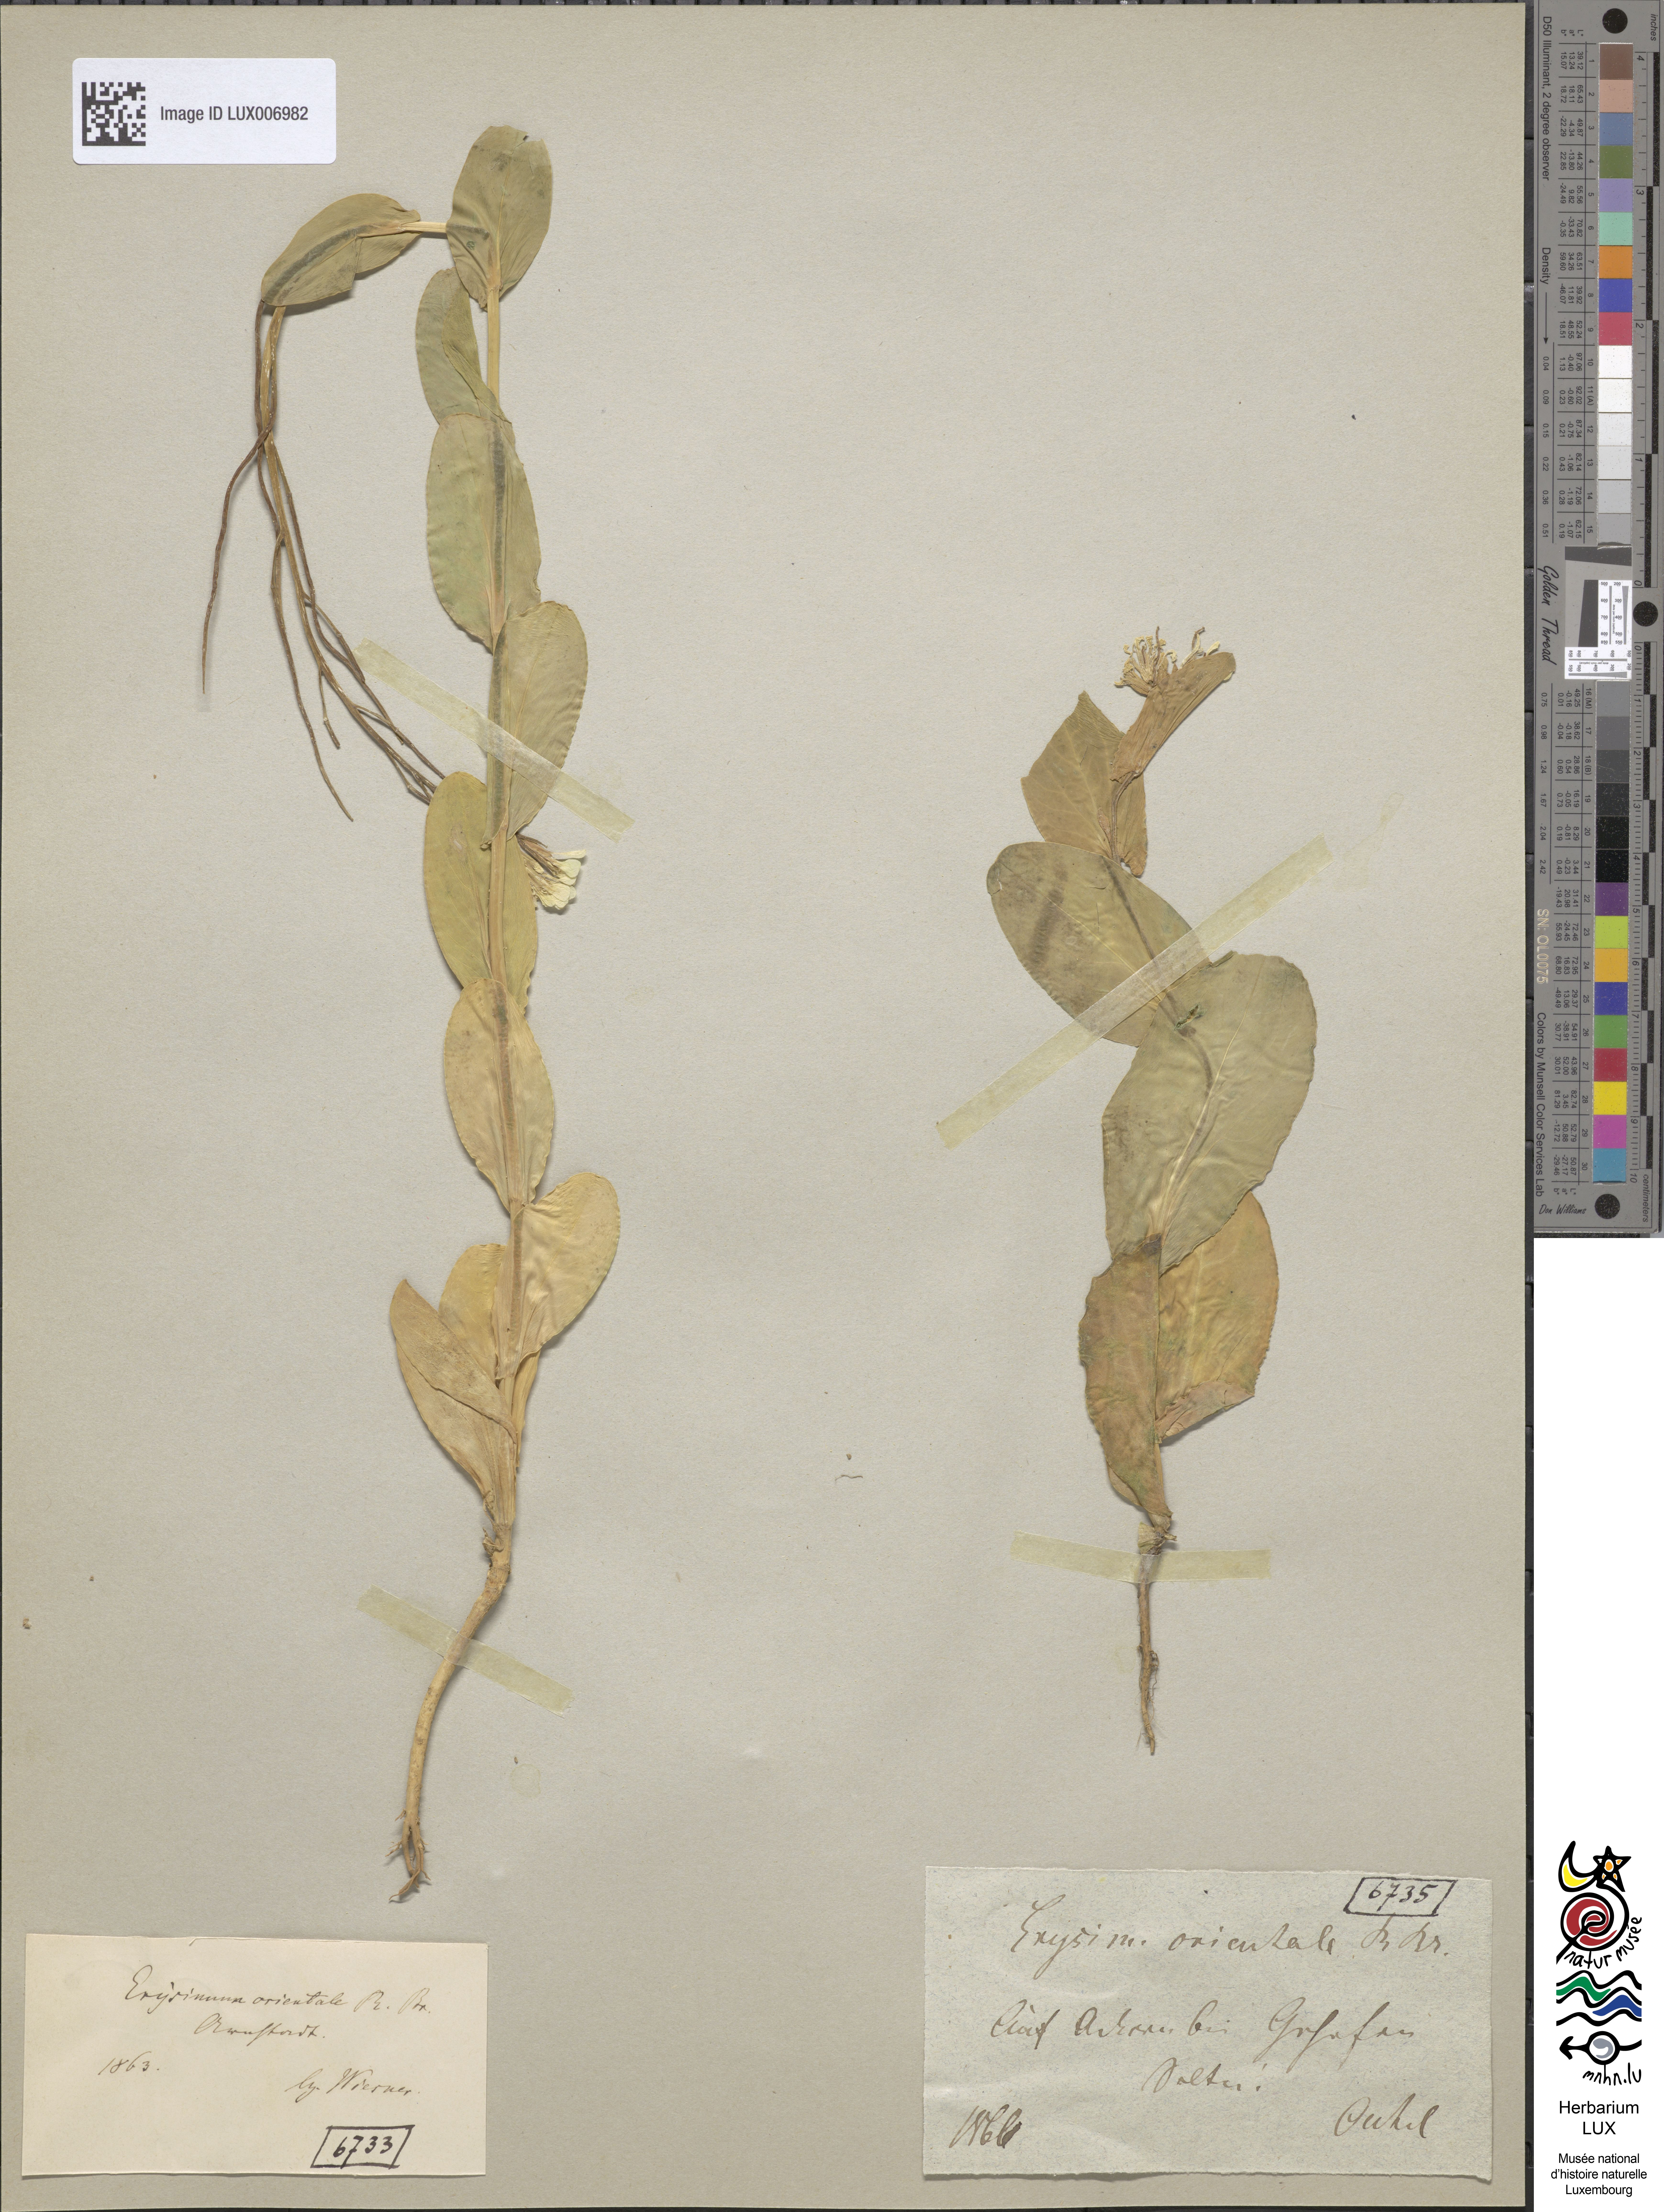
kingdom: Plantae
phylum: Tracheophyta
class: Magnoliopsida
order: Brassicales
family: Brassicaceae
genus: Conringia
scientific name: Conringia orientalis
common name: Hare's ear mustard
